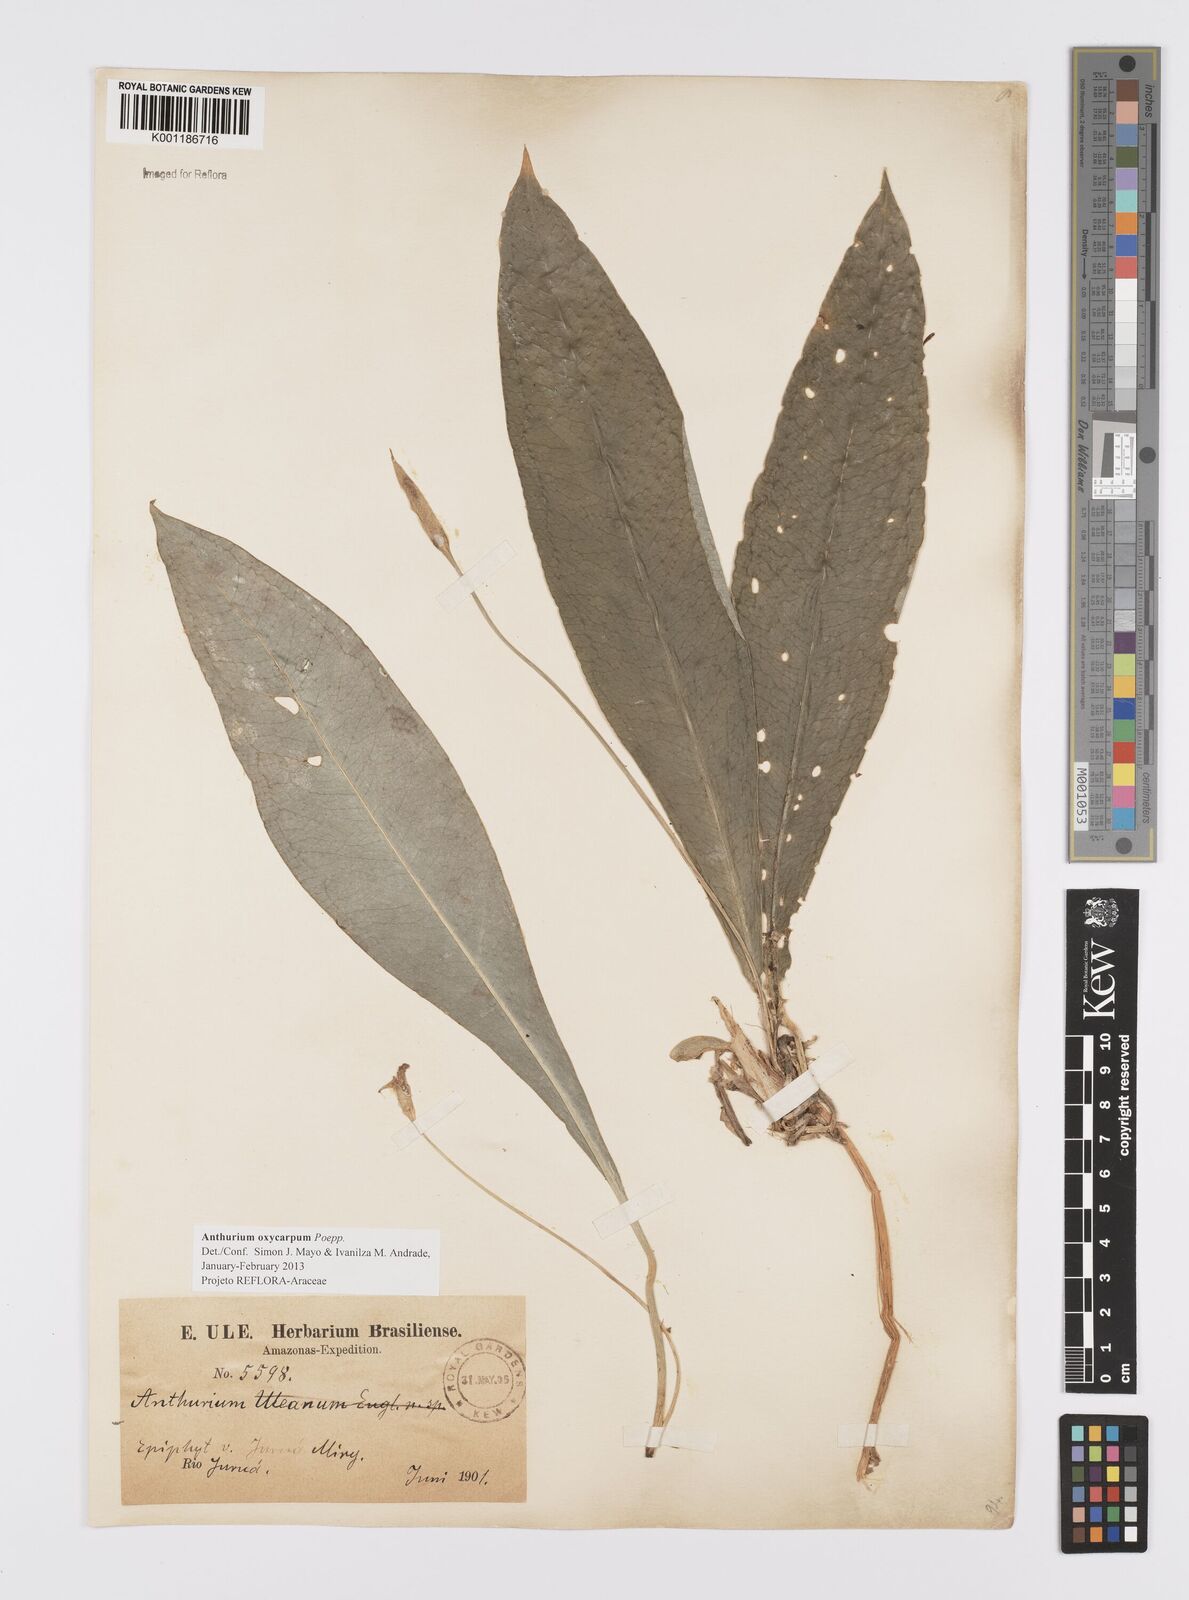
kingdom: Plantae
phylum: Tracheophyta
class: Liliopsida
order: Alismatales
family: Araceae
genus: Anthurium
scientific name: Anthurium oxycarpum
